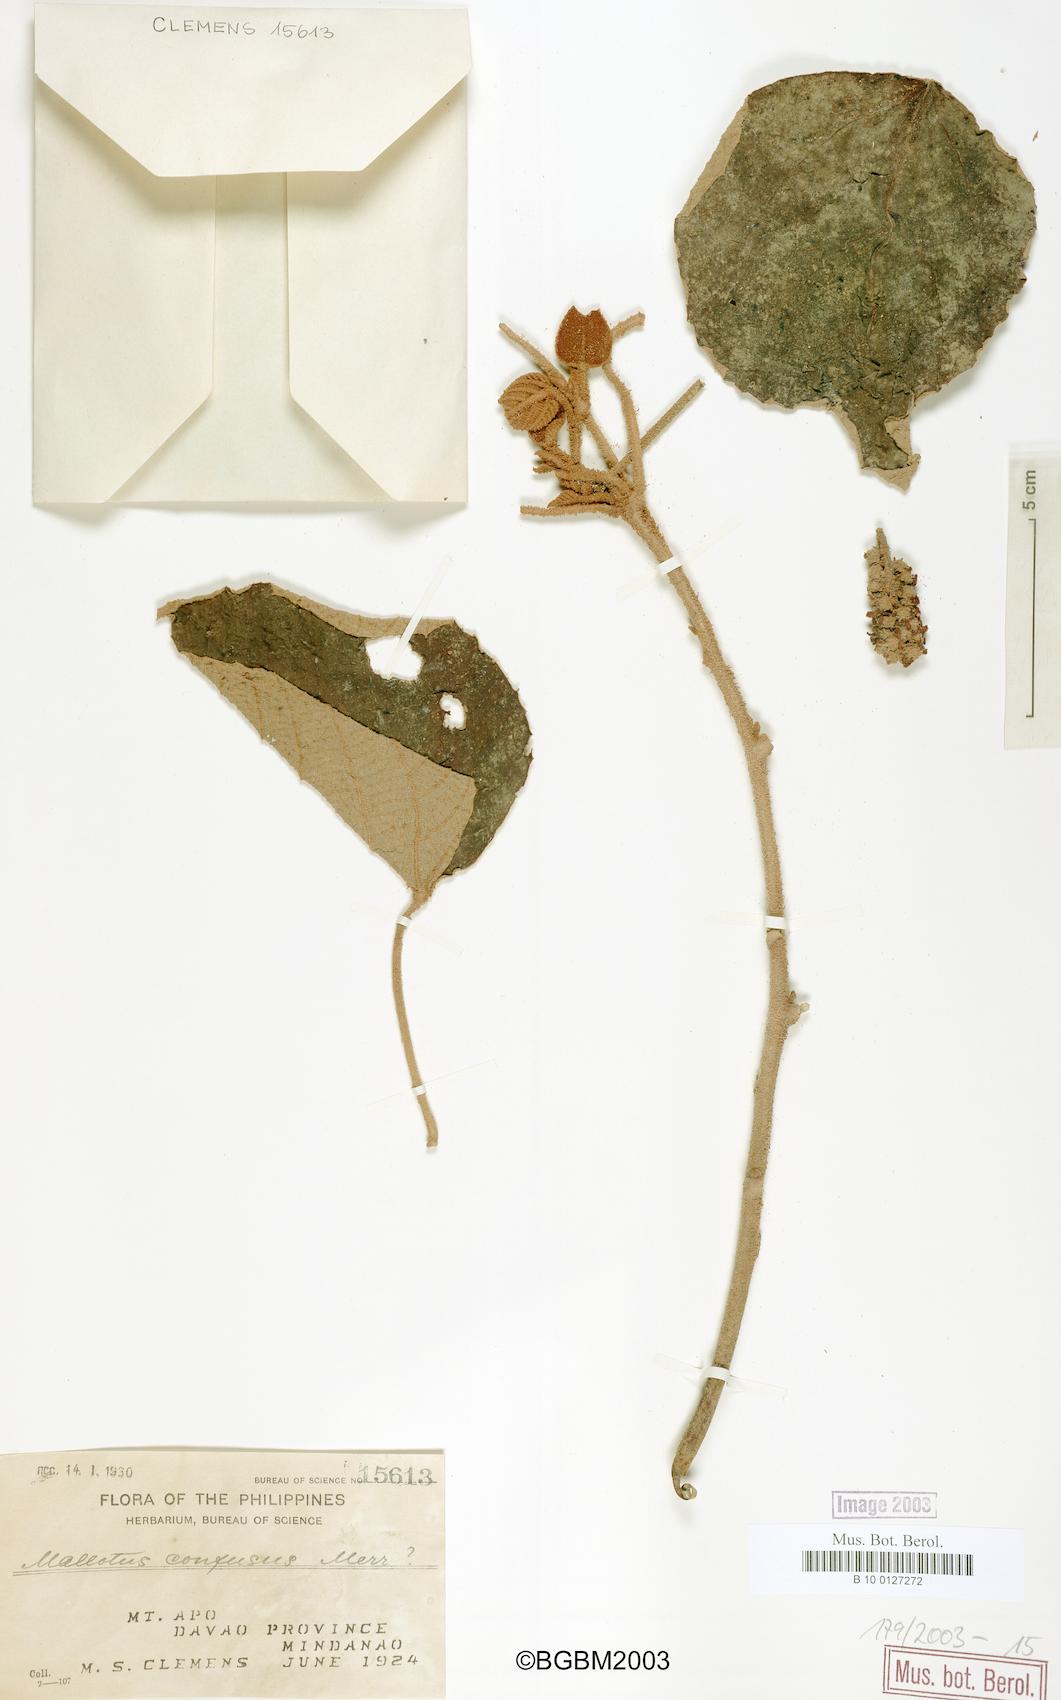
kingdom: Plantae
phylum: Tracheophyta
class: Magnoliopsida
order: Malpighiales
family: Euphorbiaceae
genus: Mallotus
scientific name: Mallotus confusus
